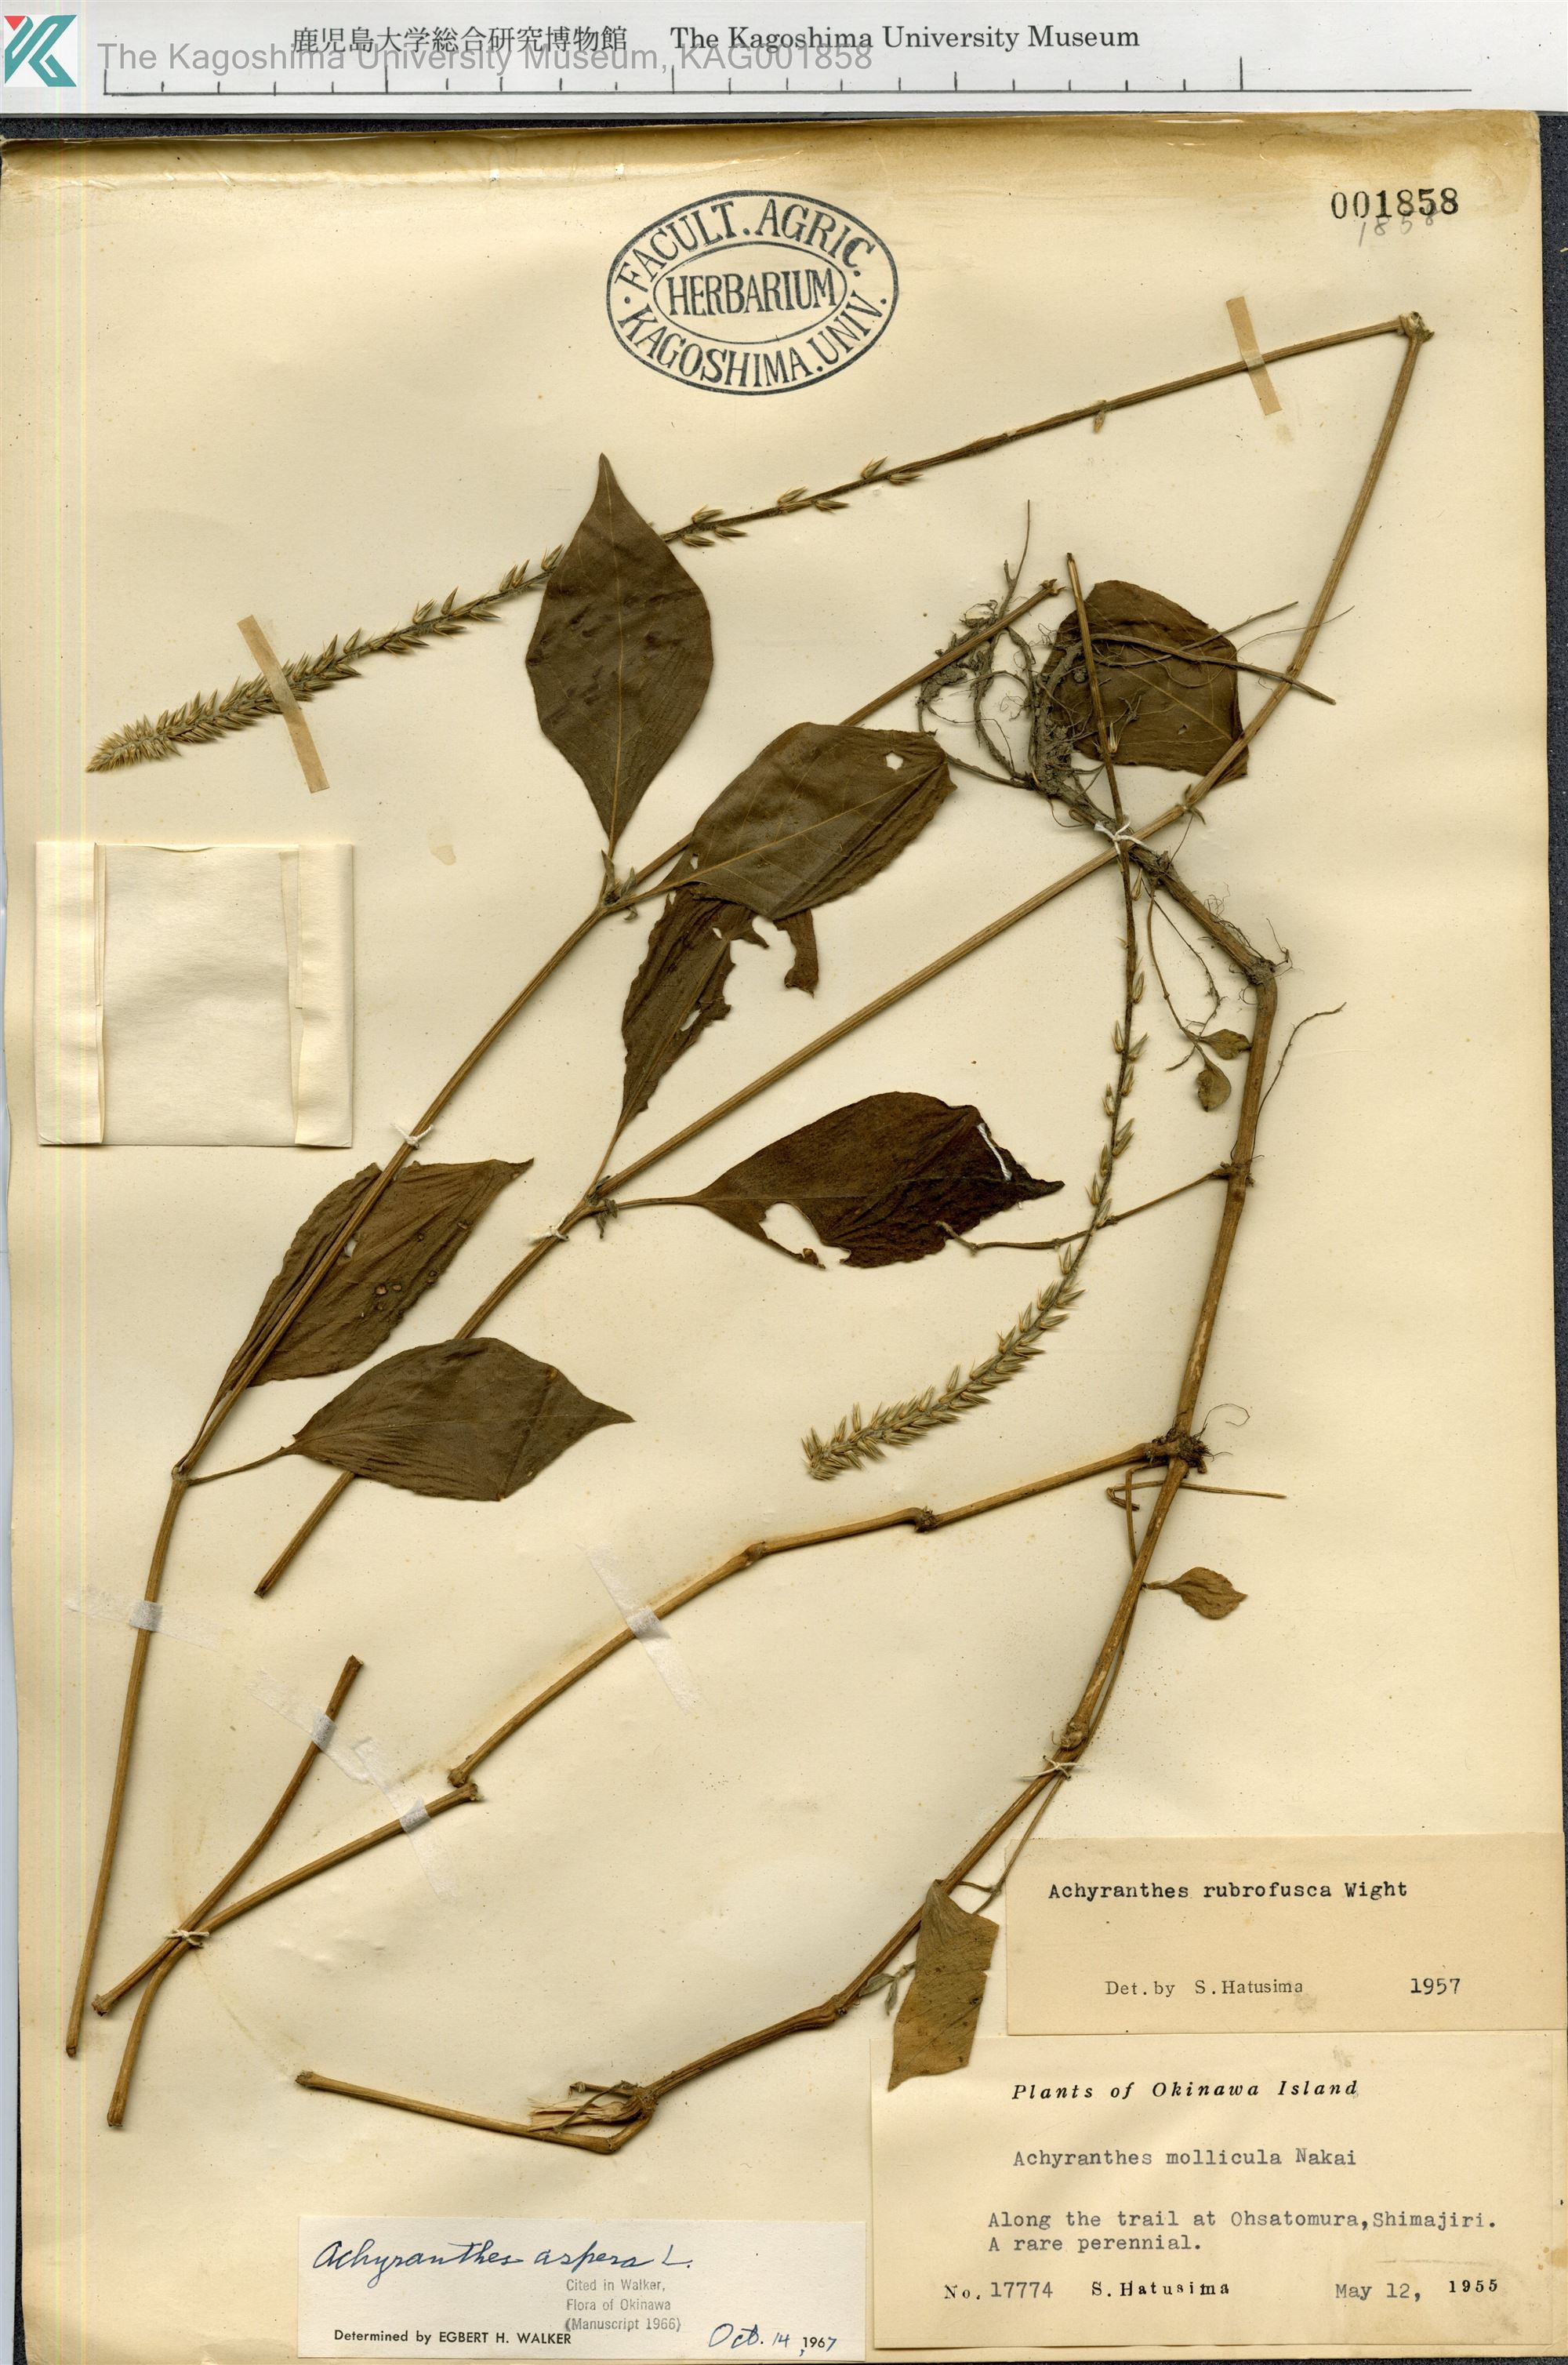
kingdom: Plantae
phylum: Tracheophyta
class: Magnoliopsida
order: Caryophyllales
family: Amaranthaceae
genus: Achyranthes
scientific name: Achyranthes aspera
